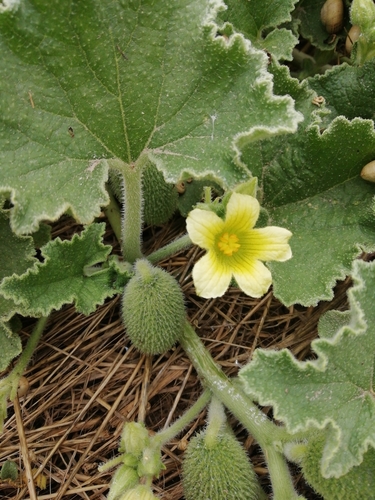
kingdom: Plantae
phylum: Tracheophyta
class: Magnoliopsida
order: Cucurbitales
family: Cucurbitaceae
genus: Ecballium
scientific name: Ecballium elaterium
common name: Squirting cucumber
